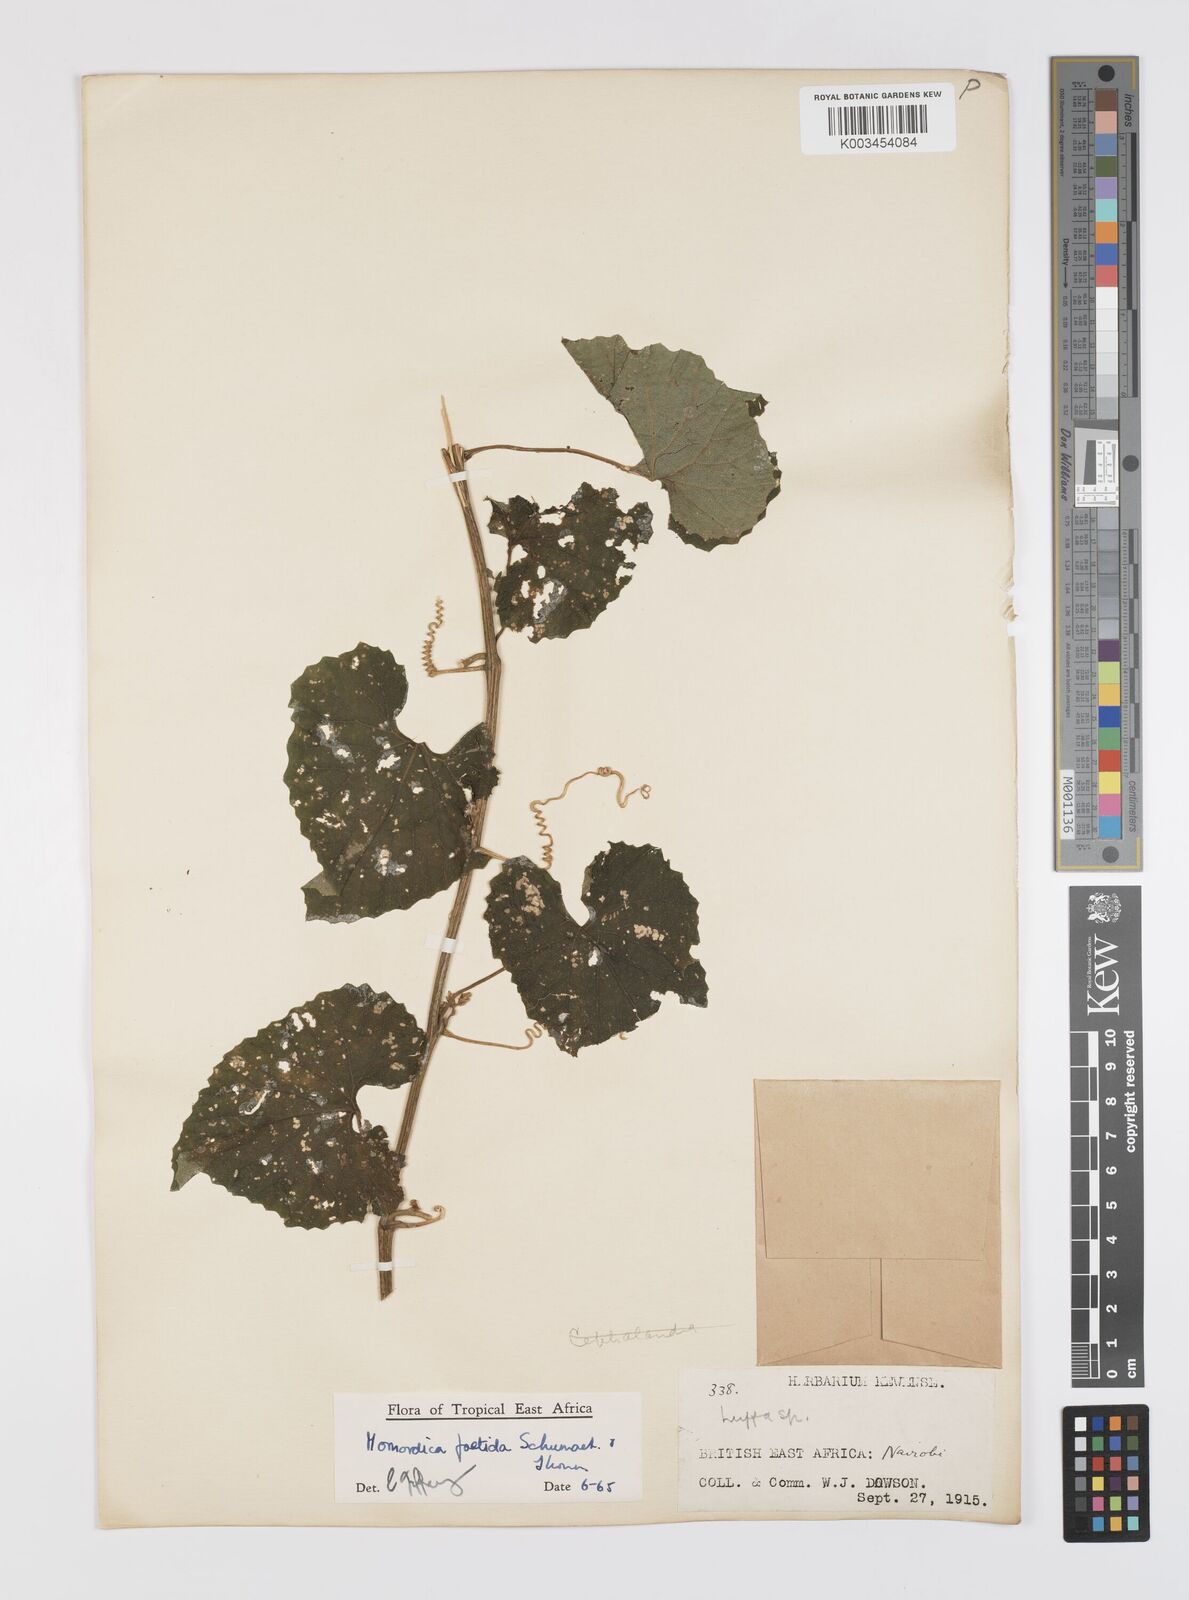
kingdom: Plantae
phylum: Tracheophyta
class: Magnoliopsida
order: Cucurbitales
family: Cucurbitaceae
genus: Momordica
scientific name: Momordica foetida
